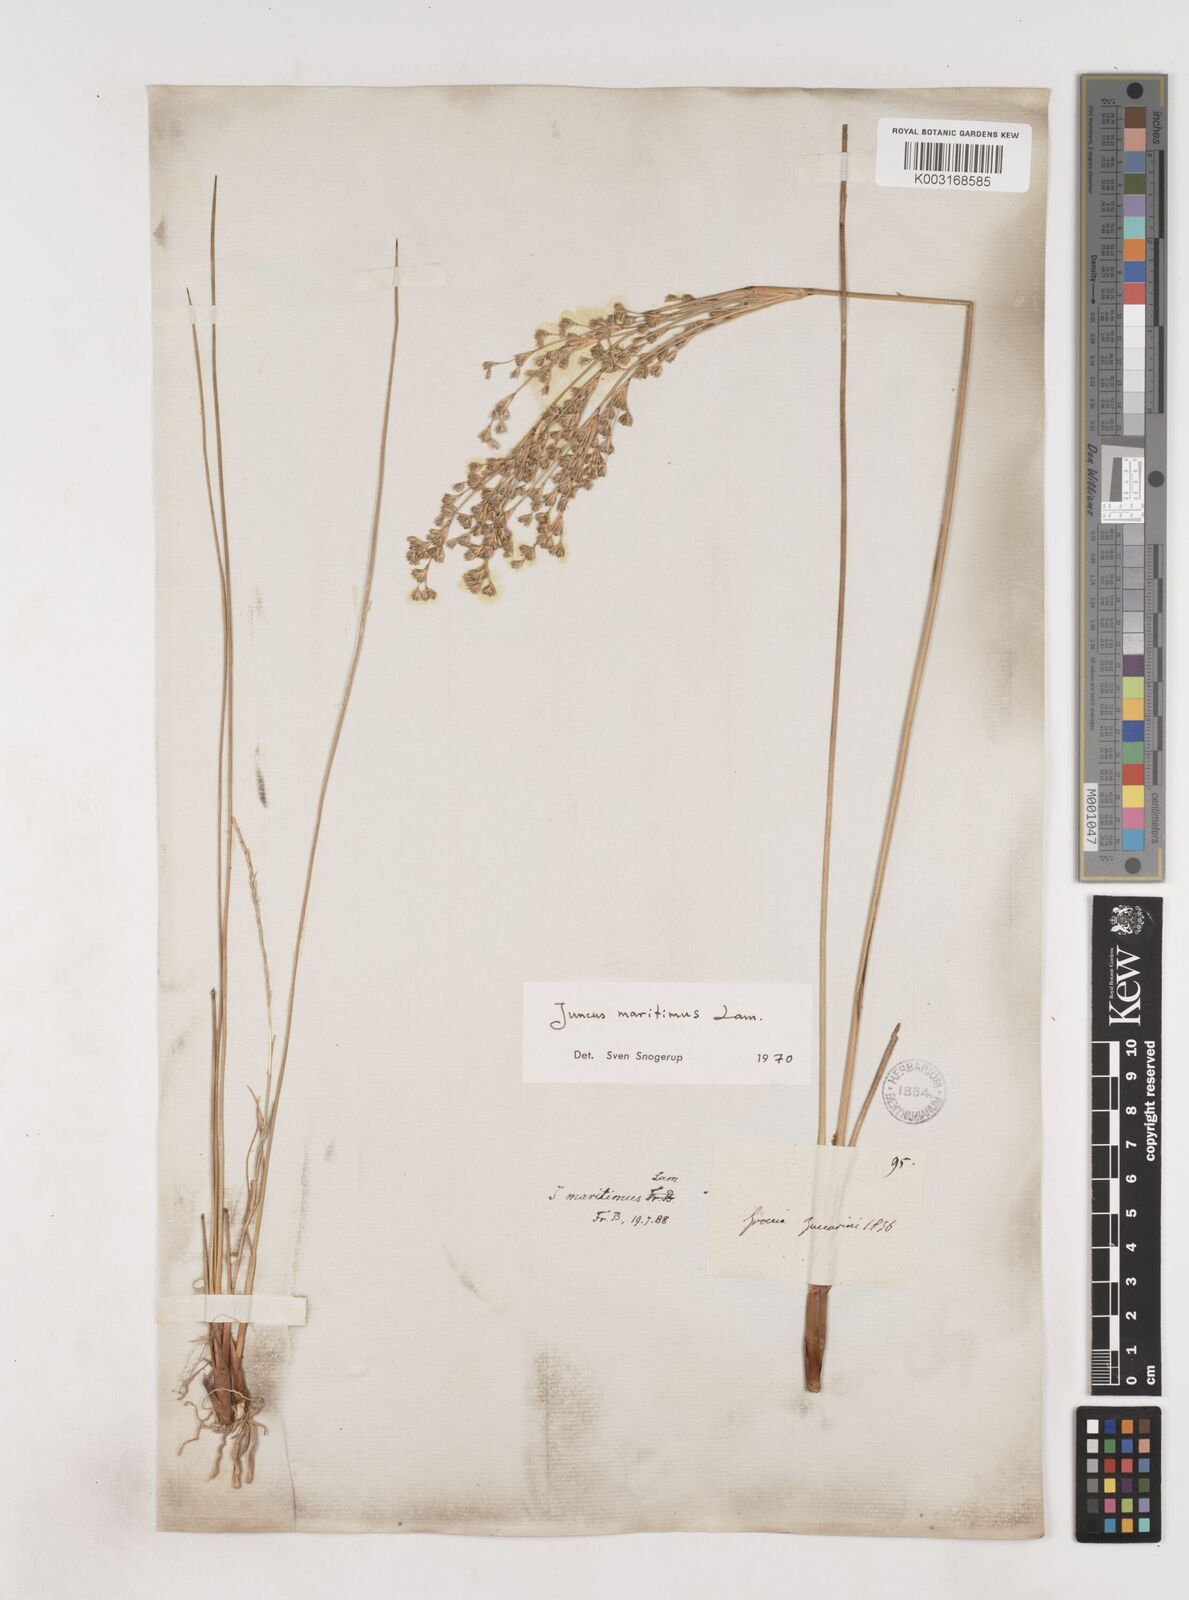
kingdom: Plantae
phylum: Tracheophyta
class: Liliopsida
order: Poales
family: Juncaceae
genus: Juncus
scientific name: Juncus maritimus
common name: Sea rush
